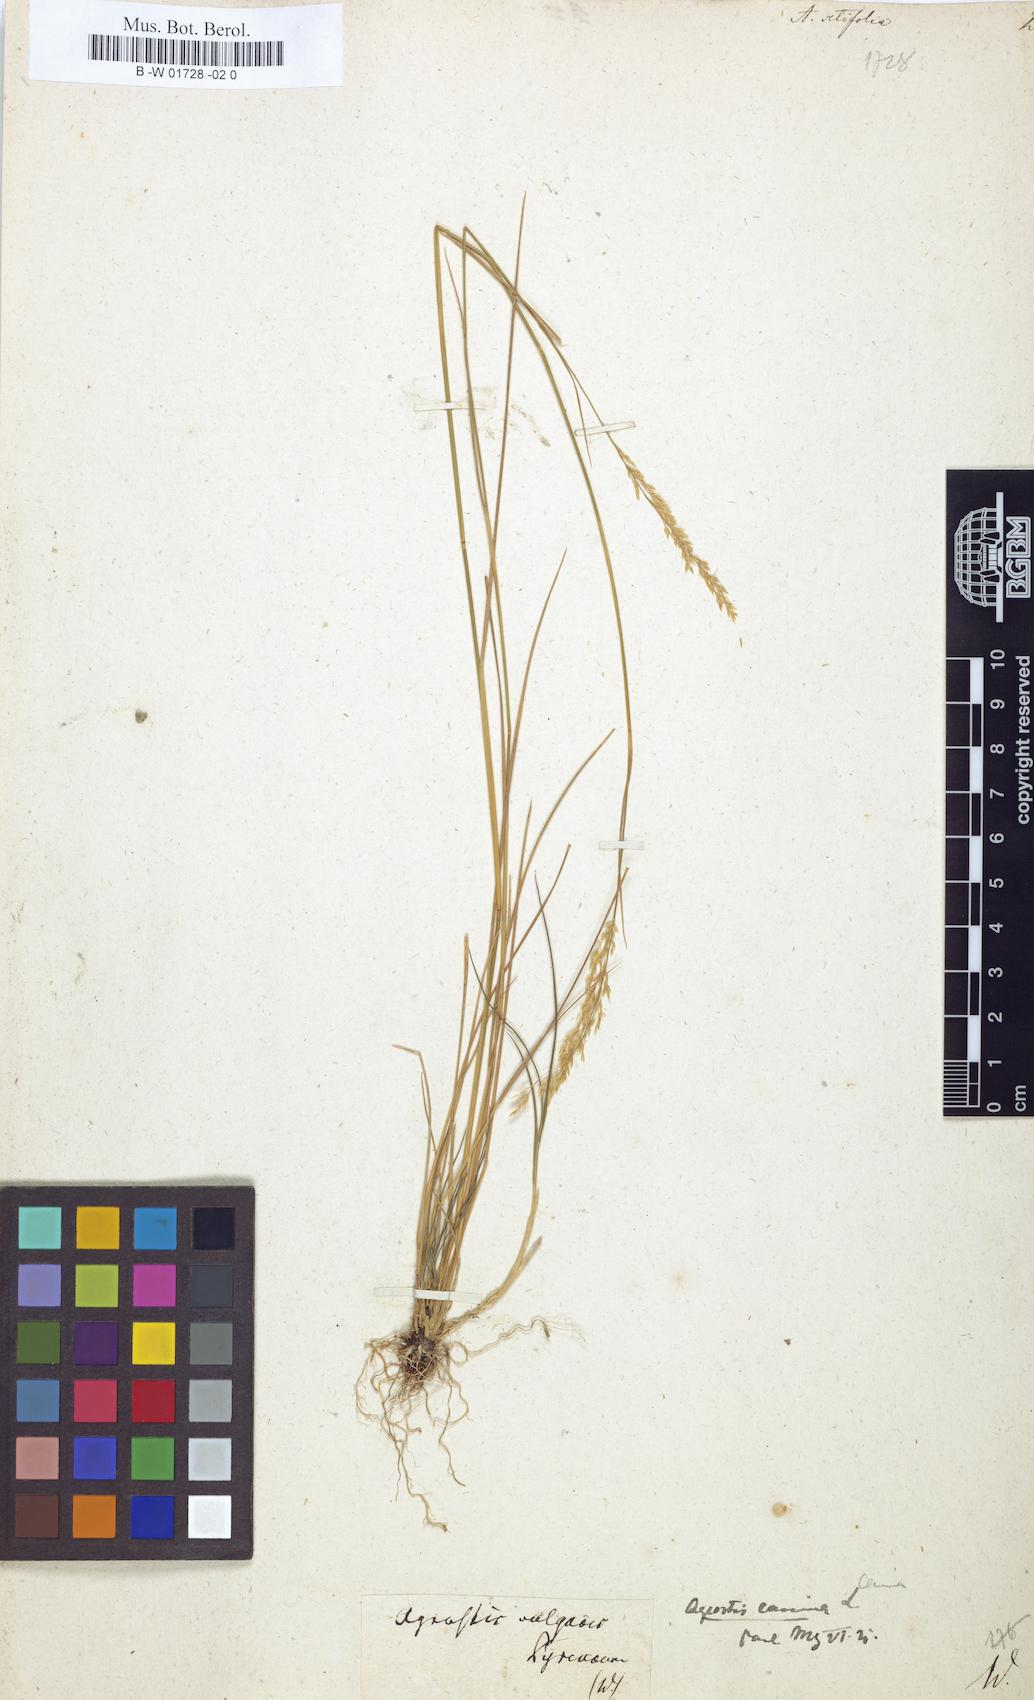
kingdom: Plantae
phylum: Tracheophyta
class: Liliopsida
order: Poales
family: Poaceae
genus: Agrostis
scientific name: Agrostis
